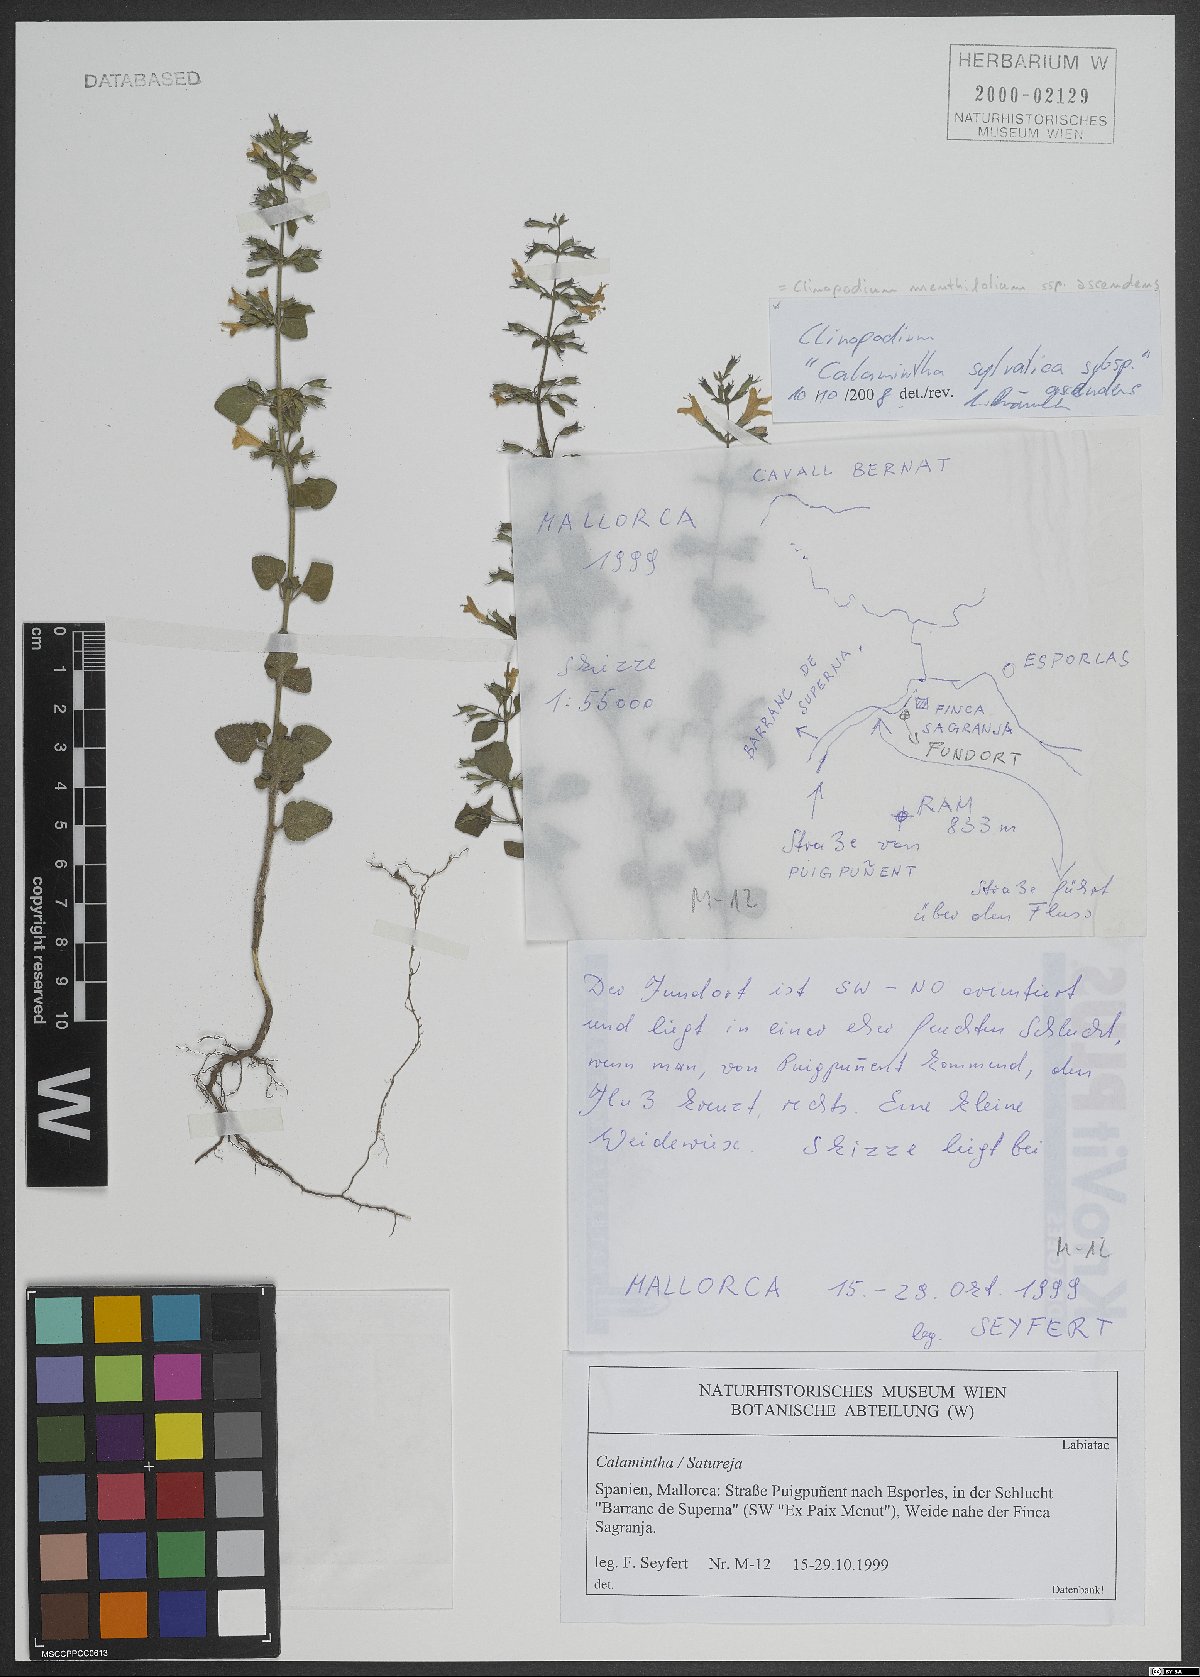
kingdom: Plantae
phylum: Tracheophyta
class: Magnoliopsida
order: Lamiales
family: Lamiaceae
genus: Clinopodium
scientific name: Clinopodium menthifolium
